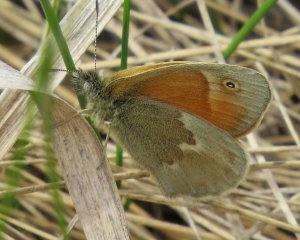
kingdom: Animalia
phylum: Arthropoda
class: Insecta
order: Lepidoptera
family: Nymphalidae
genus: Coenonympha
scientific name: Coenonympha tullia
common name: Large Heath
